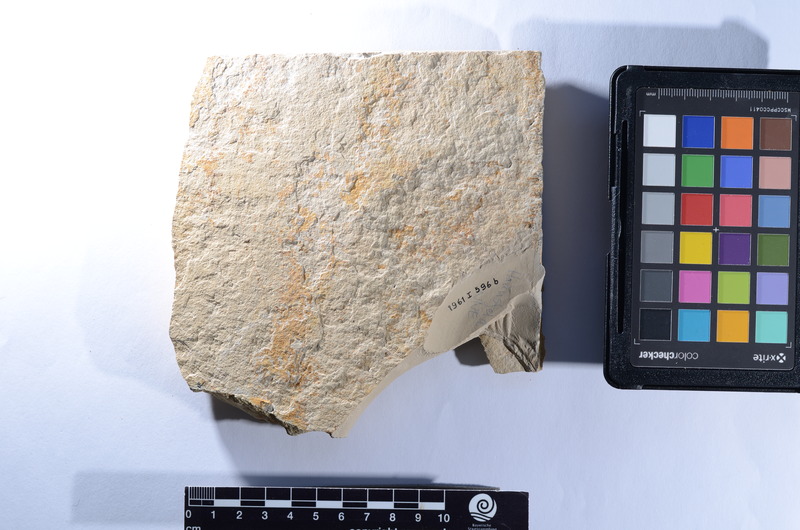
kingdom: Animalia
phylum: Chordata
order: Amiiformes
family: Ionoscopidae
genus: Ionoscopus
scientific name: Ionoscopus
